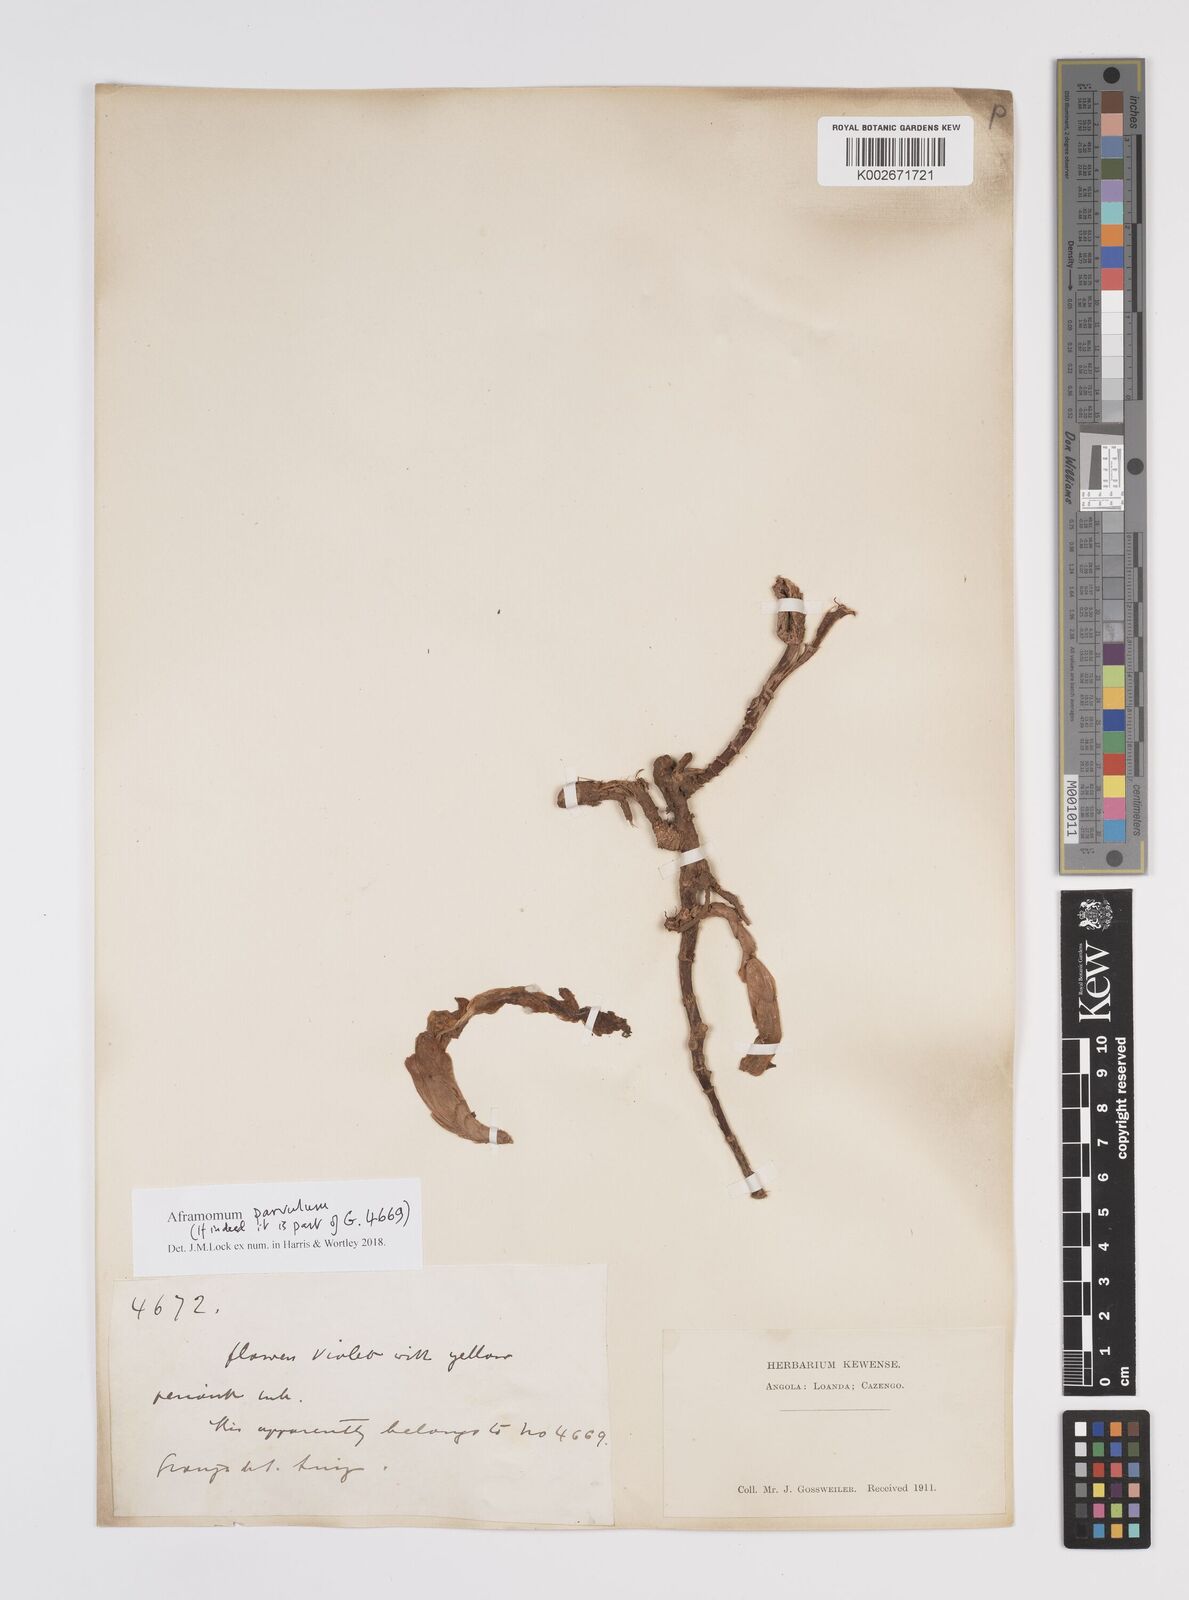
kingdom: Plantae
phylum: Tracheophyta
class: Liliopsida
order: Zingiberales
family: Zingiberaceae
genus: Aframomum
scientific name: Aframomum parvulum
